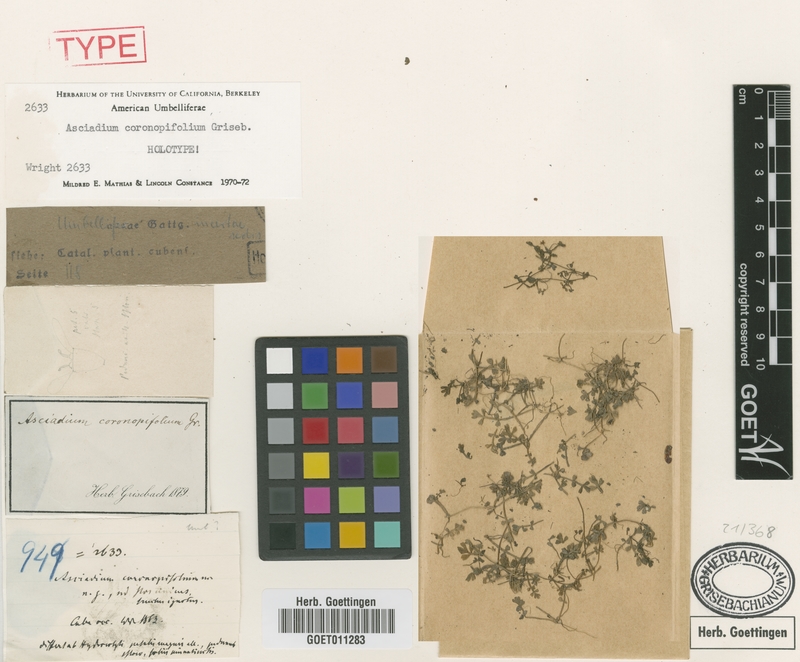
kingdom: Plantae
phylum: Tracheophyta
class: Magnoliopsida
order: Apiales
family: Apiaceae
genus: Asciadium
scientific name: Asciadium coronopifolium
